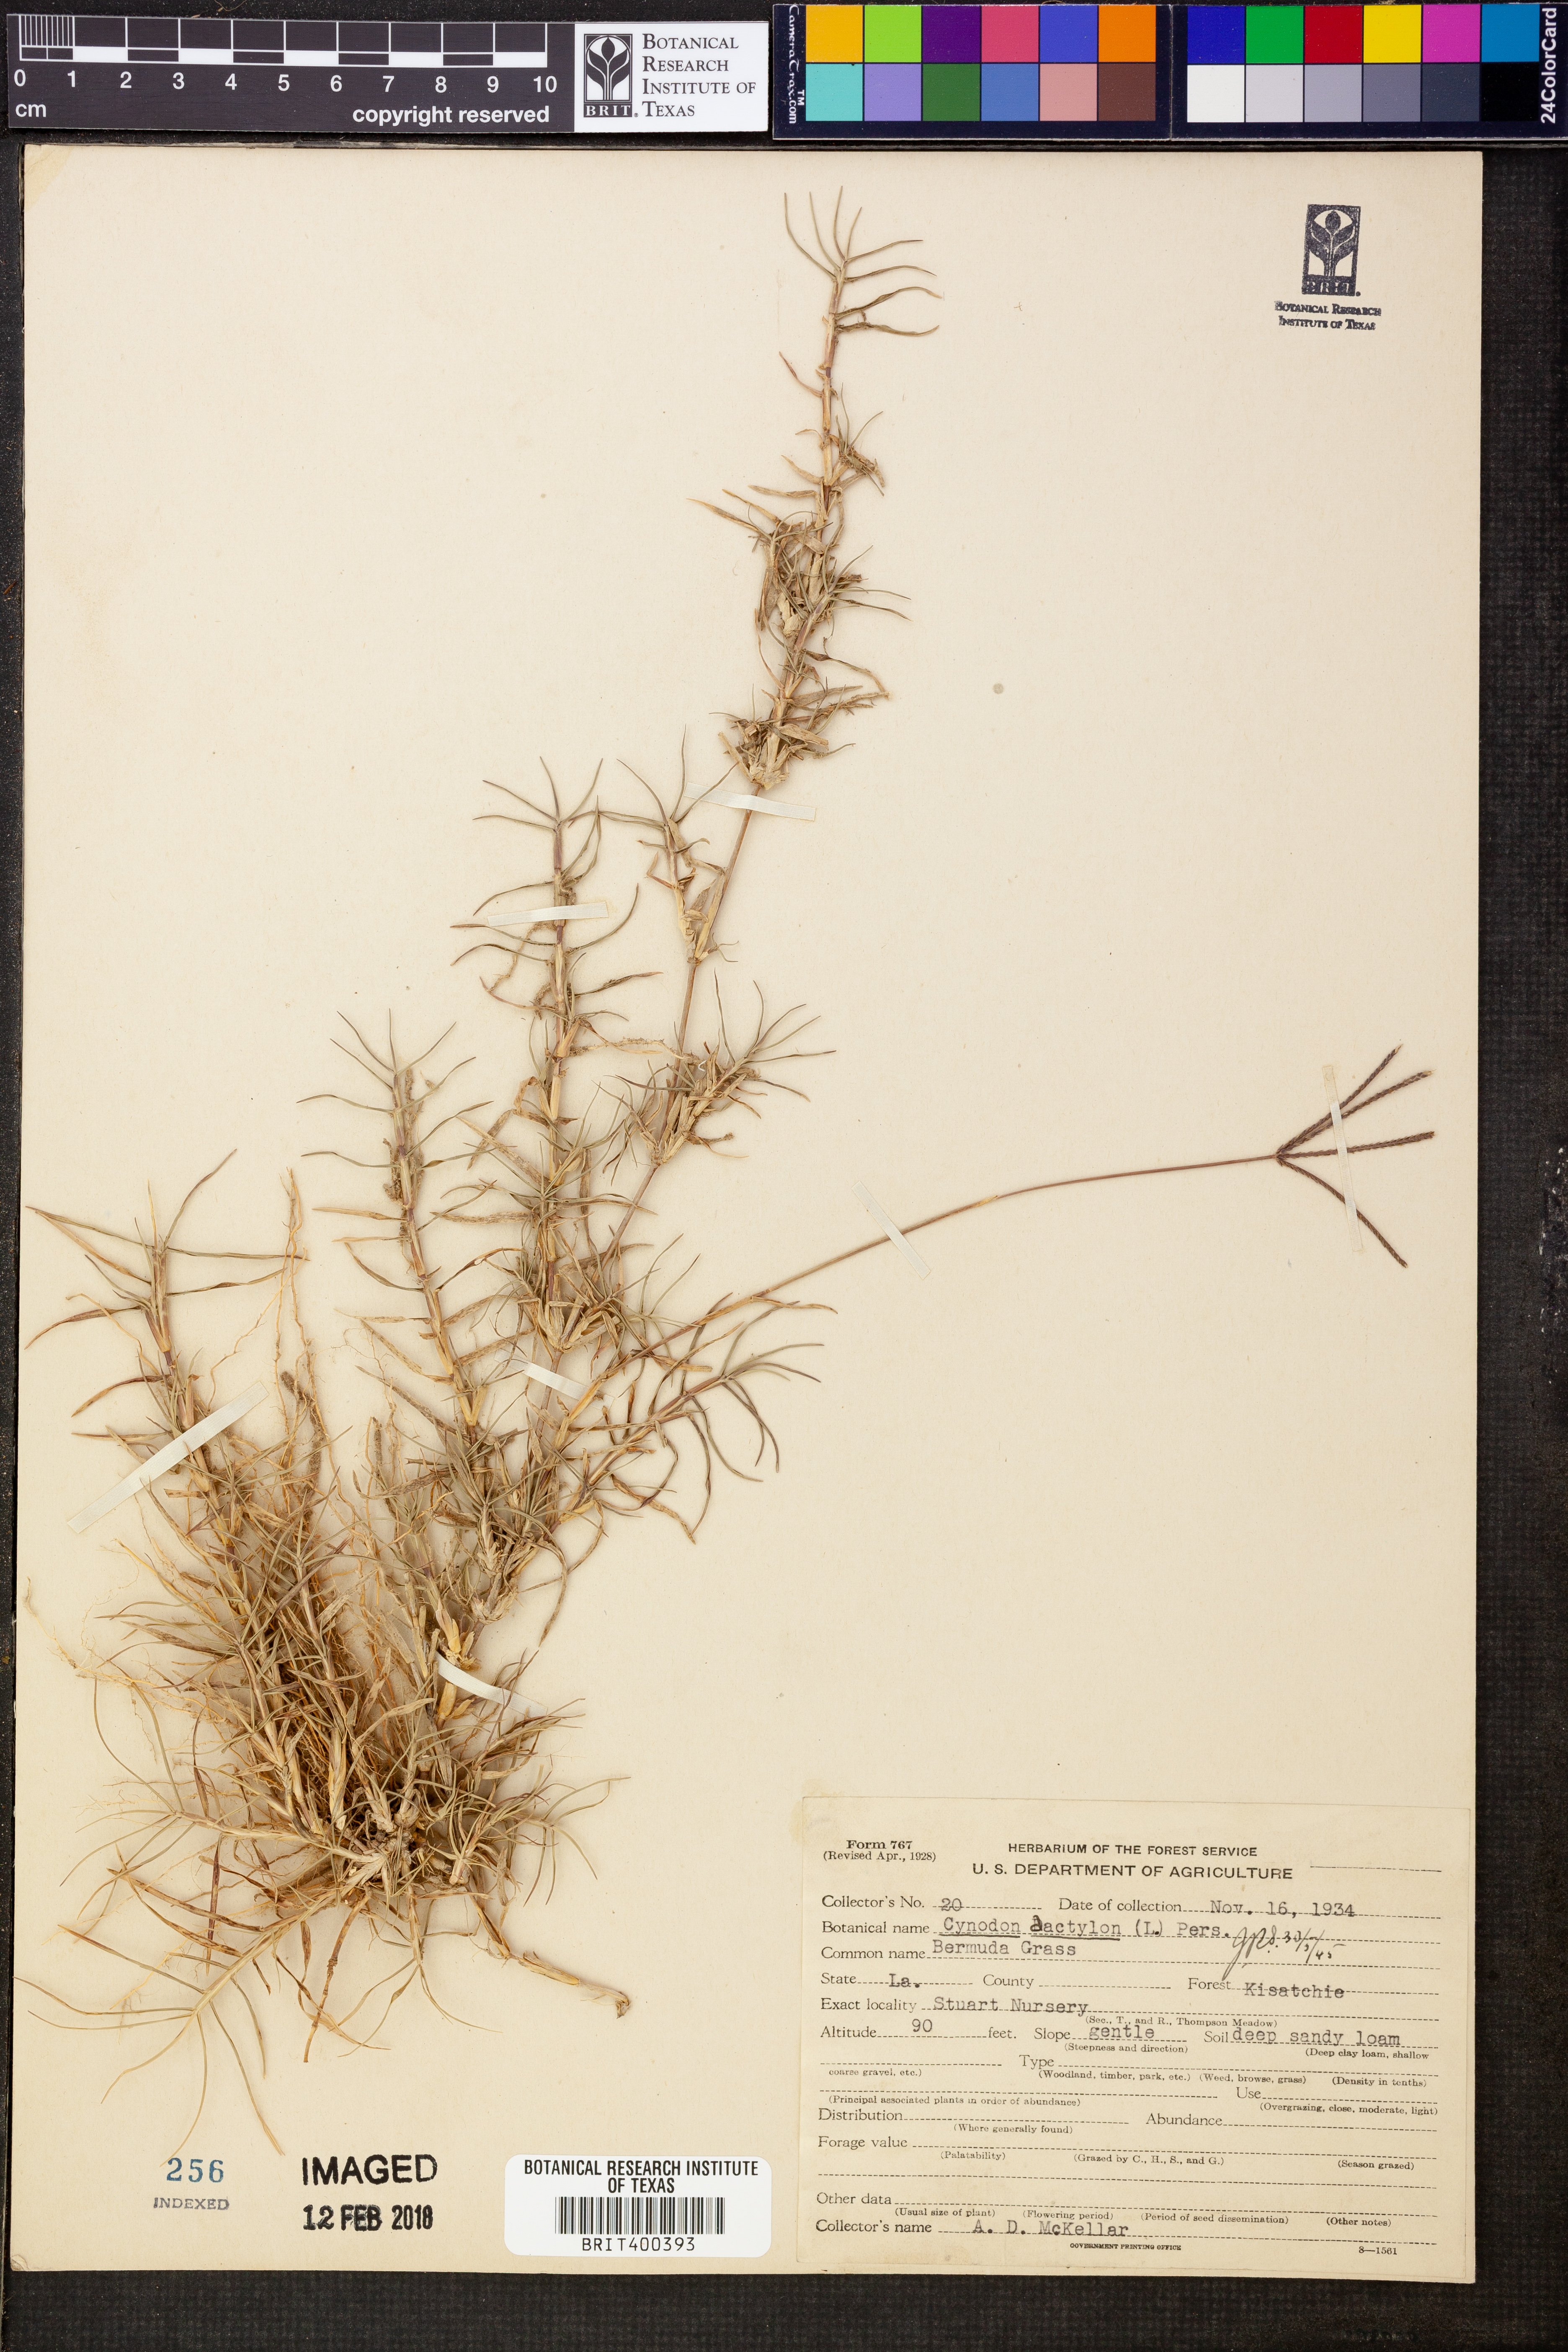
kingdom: Plantae
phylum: Tracheophyta
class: Liliopsida
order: Poales
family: Poaceae
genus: Cynodon
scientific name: Cynodon dactylon
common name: Bermuda grass
